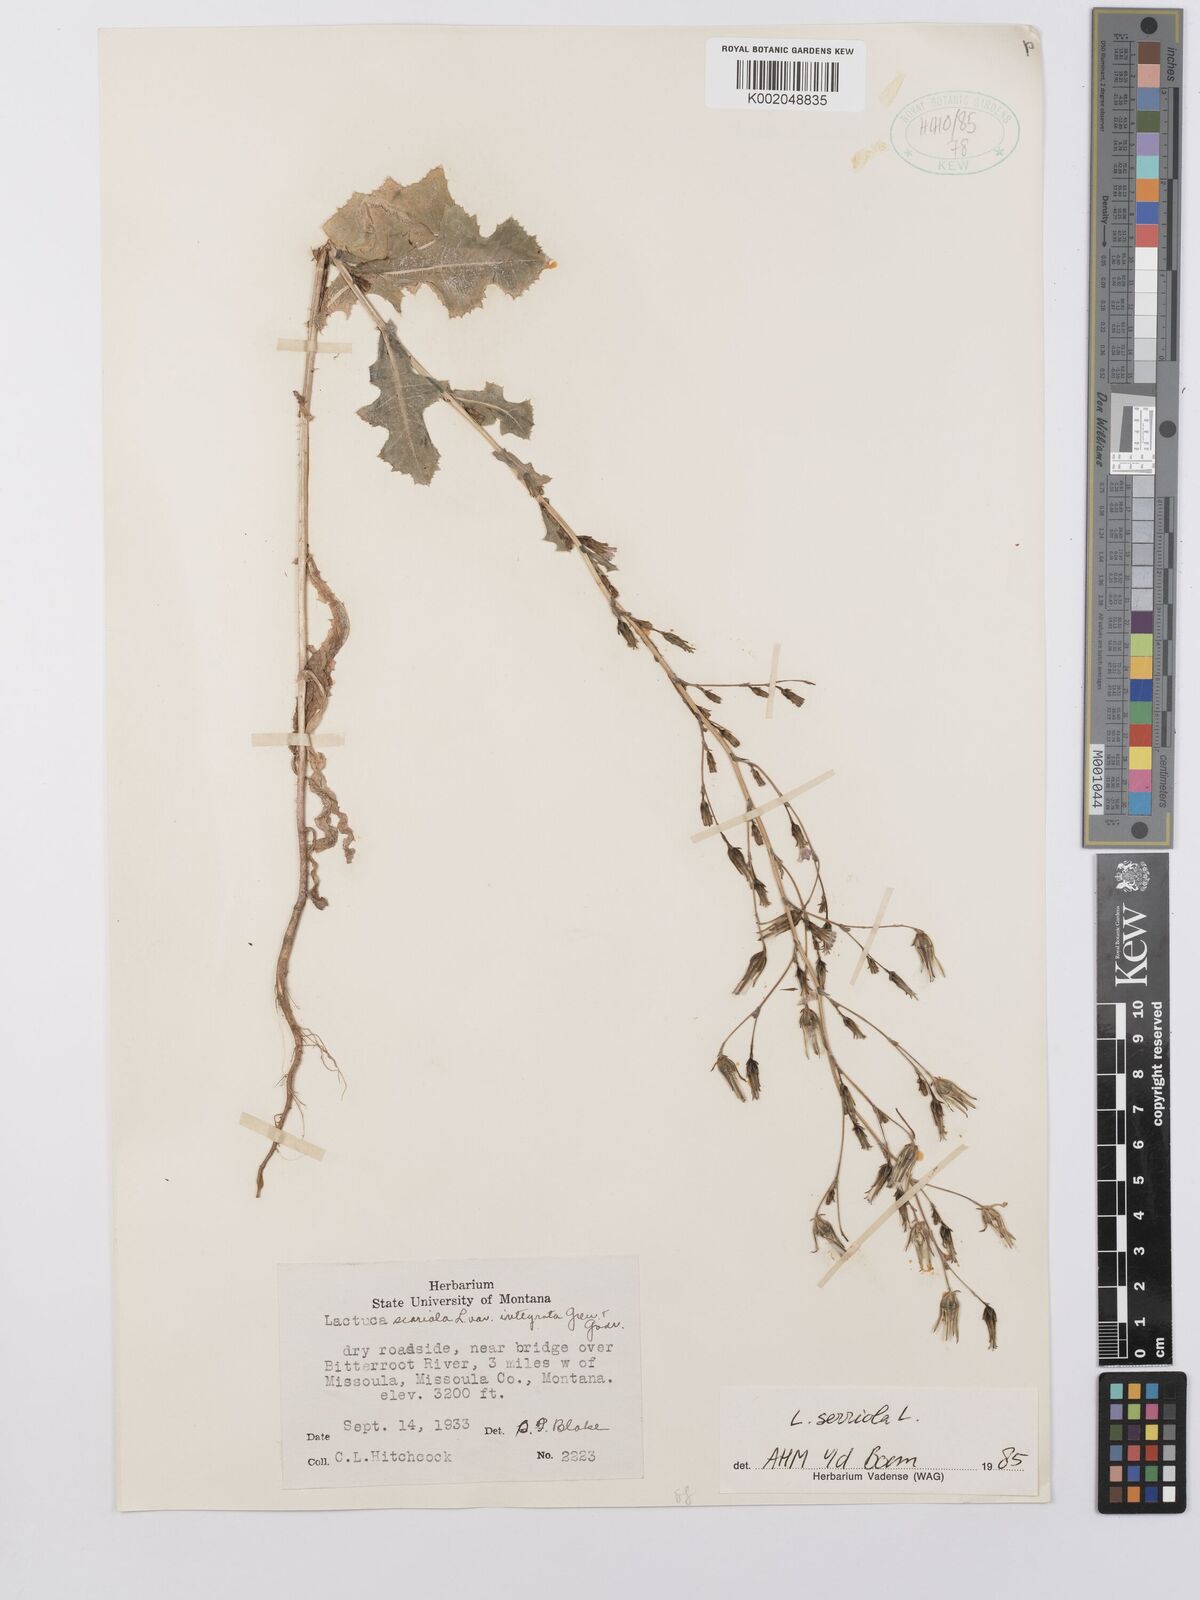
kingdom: Plantae
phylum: Tracheophyta
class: Magnoliopsida
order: Asterales
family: Asteraceae
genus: Lactuca
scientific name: Lactuca serriola
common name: Prickly lettuce
